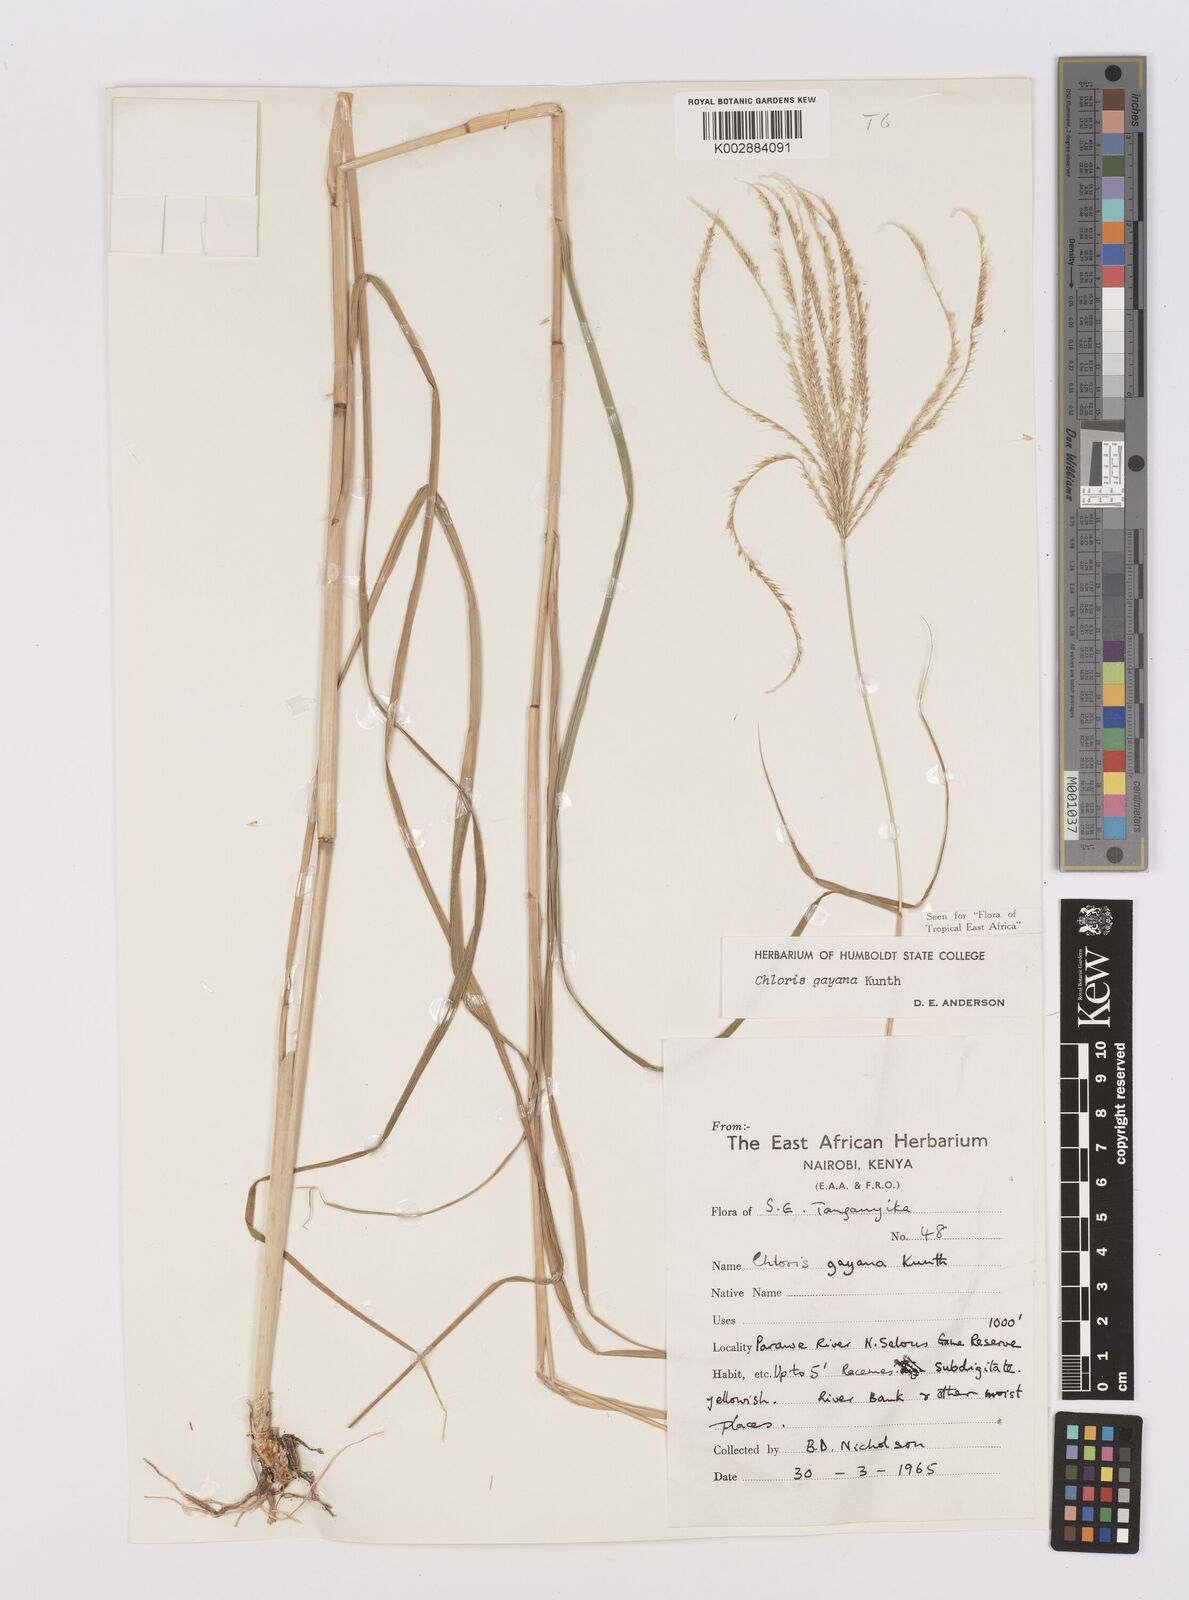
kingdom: Plantae
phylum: Tracheophyta
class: Liliopsida
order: Poales
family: Poaceae
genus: Chloris
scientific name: Chloris gayana
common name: Rhodes grass
